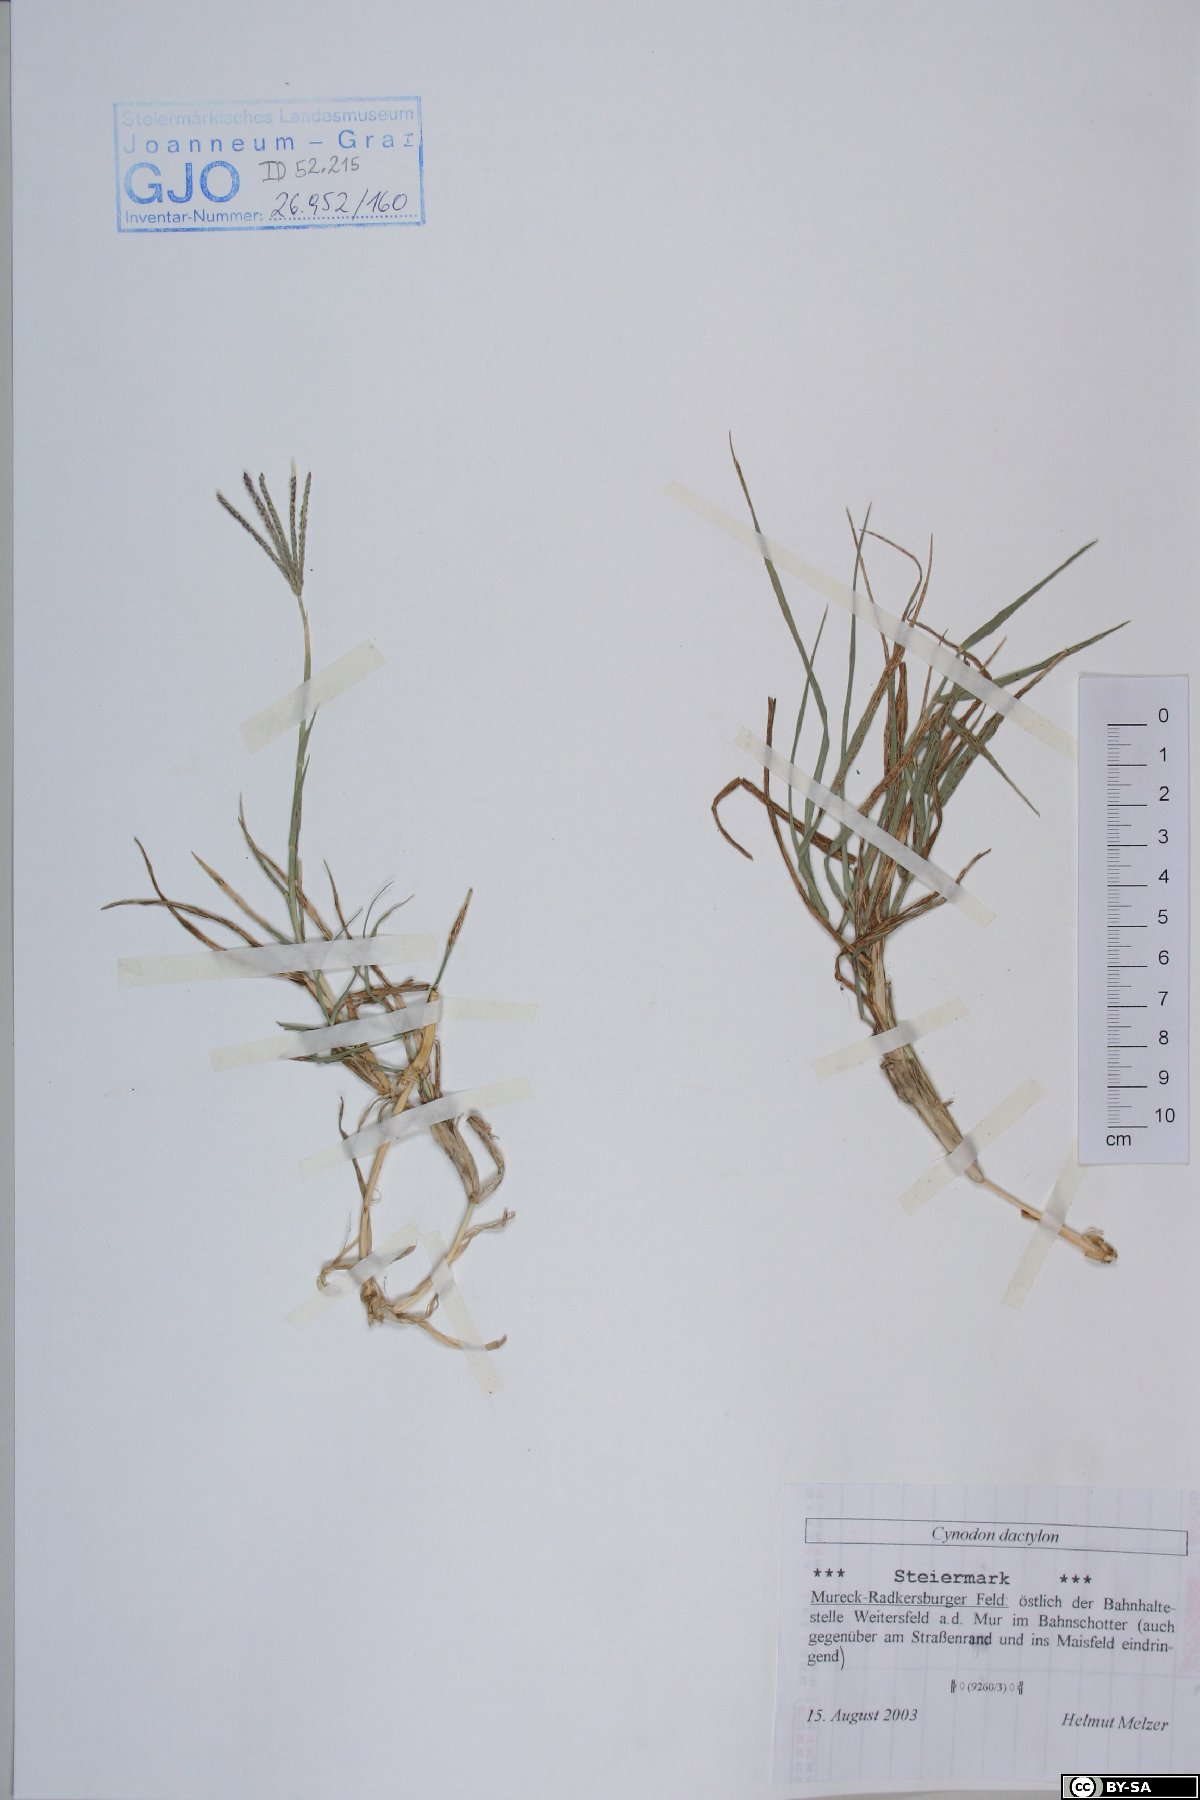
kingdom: Plantae
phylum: Tracheophyta
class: Liliopsida
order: Poales
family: Poaceae
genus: Cynodon
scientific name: Cynodon dactylon
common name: Bermuda grass
